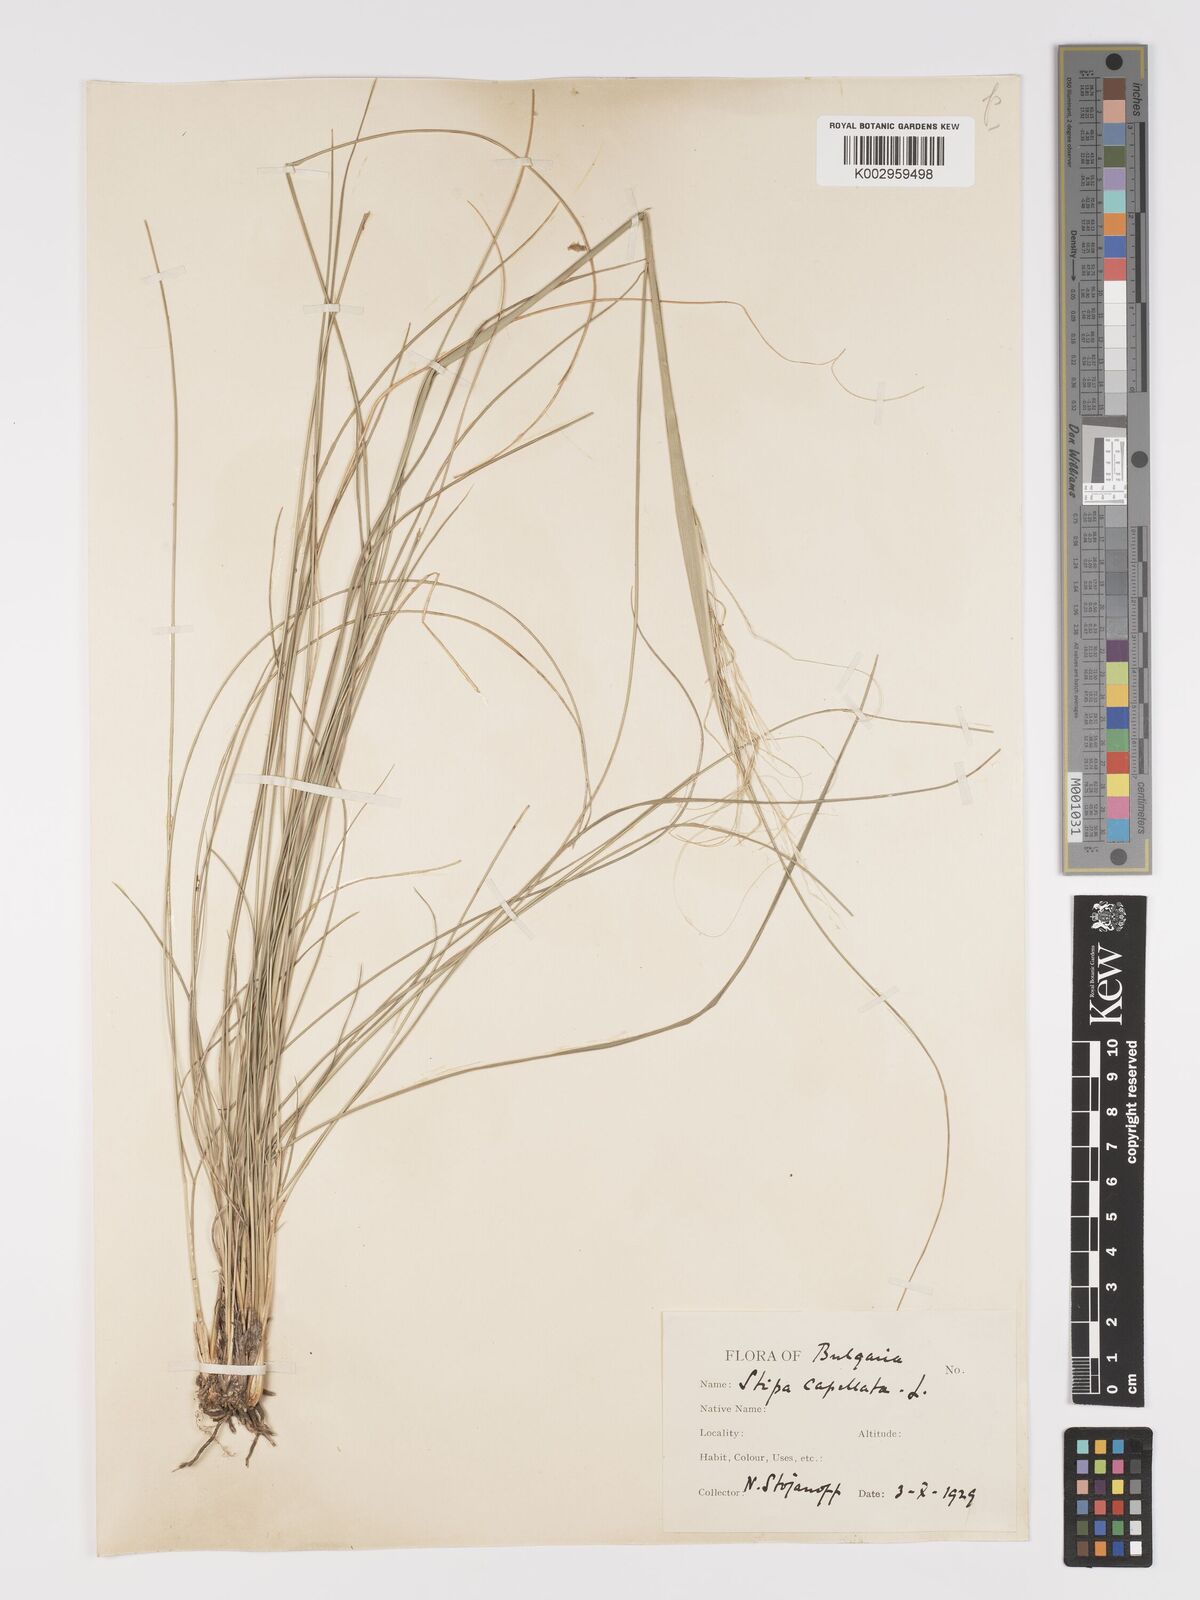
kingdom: Plantae
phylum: Tracheophyta
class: Liliopsida
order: Poales
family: Poaceae
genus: Stipa
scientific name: Stipa capillata
